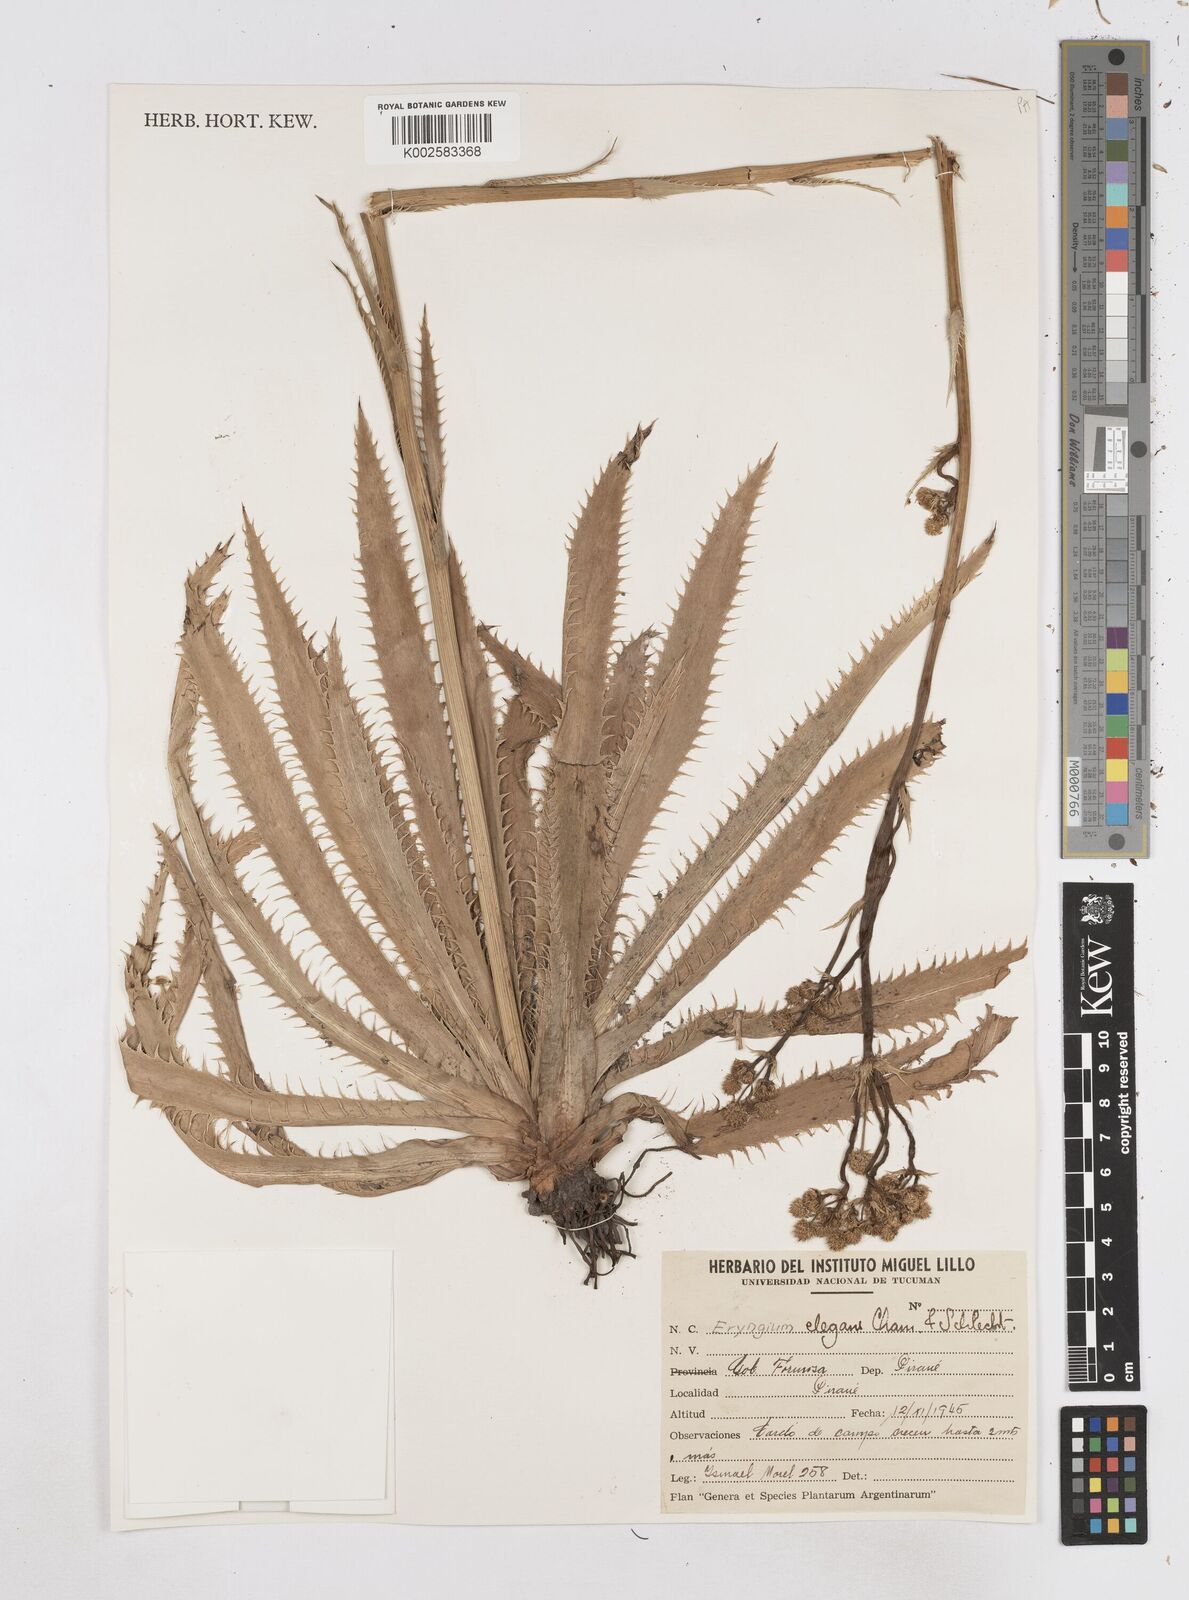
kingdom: Plantae
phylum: Tracheophyta
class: Magnoliopsida
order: Apiales
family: Apiaceae
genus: Eryngium
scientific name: Eryngium elegans
